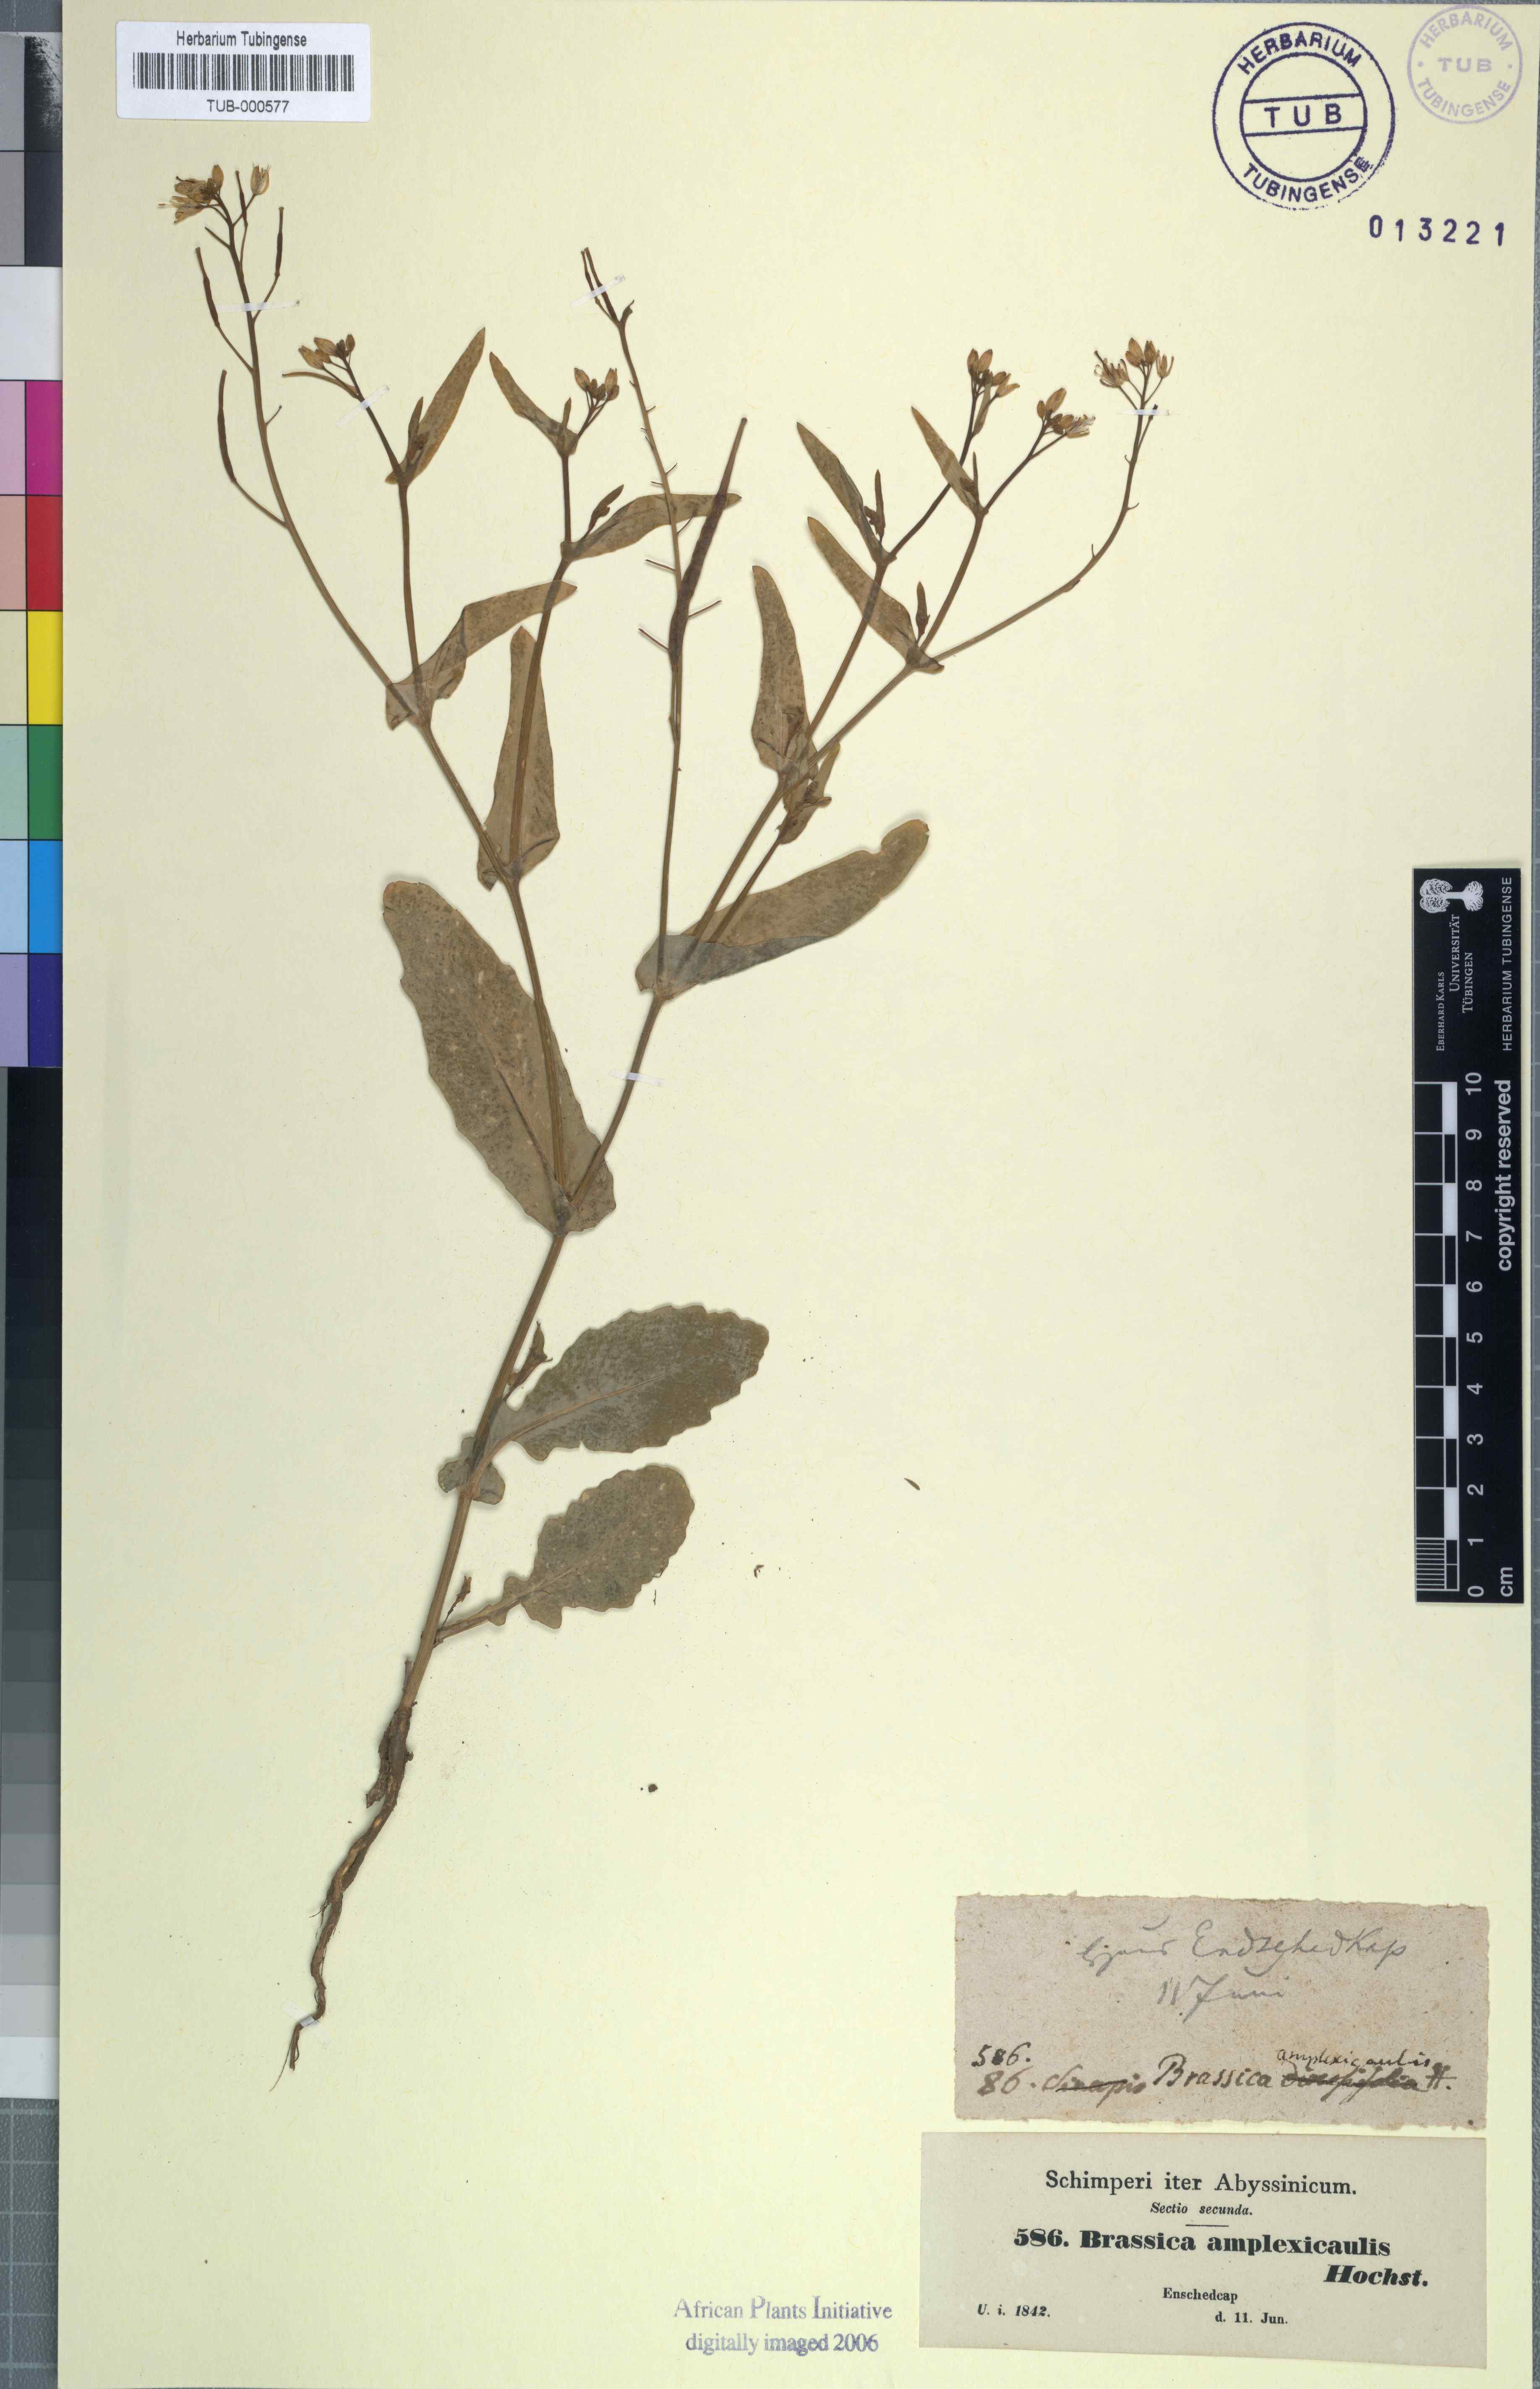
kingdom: Plantae
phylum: Tracheophyta
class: Magnoliopsida
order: Brassicales
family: Brassicaceae
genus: Brassica
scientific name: Brassica rapa
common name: Field mustard
